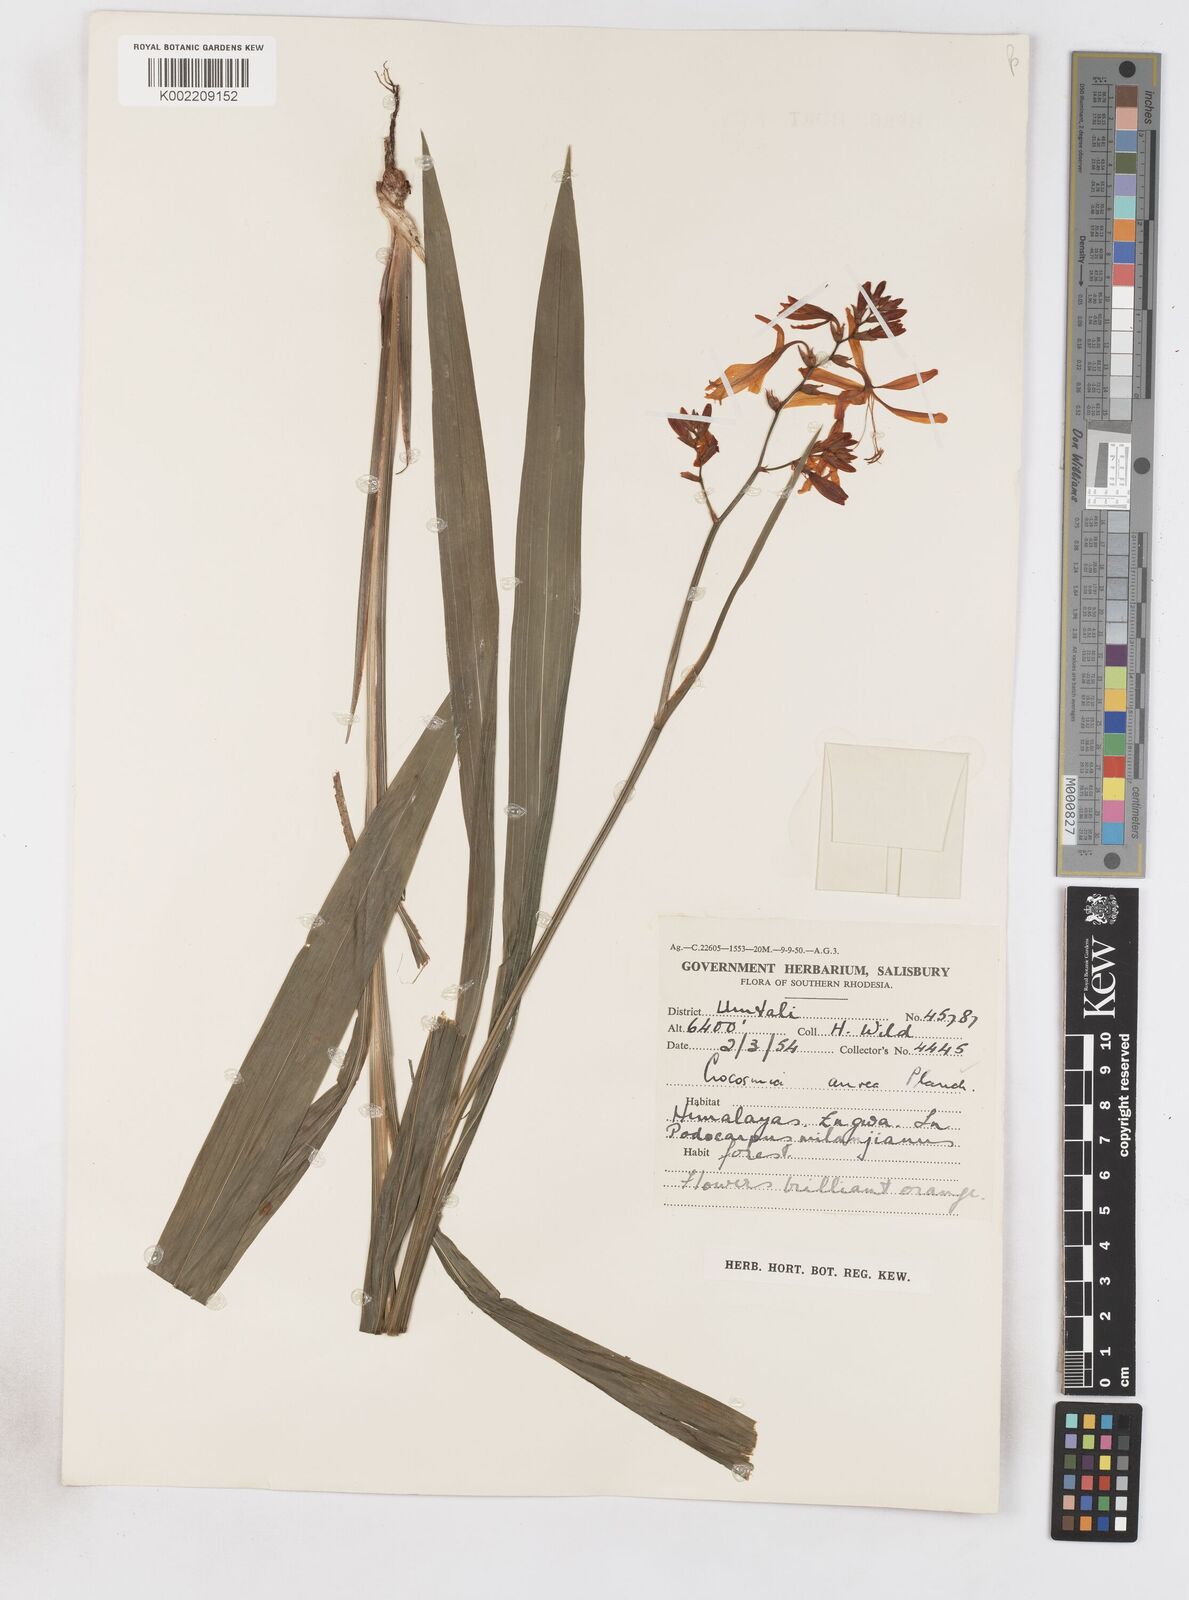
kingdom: Plantae
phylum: Tracheophyta
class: Liliopsida
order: Asparagales
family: Iridaceae
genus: Crocosmia
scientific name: Crocosmia aurea
